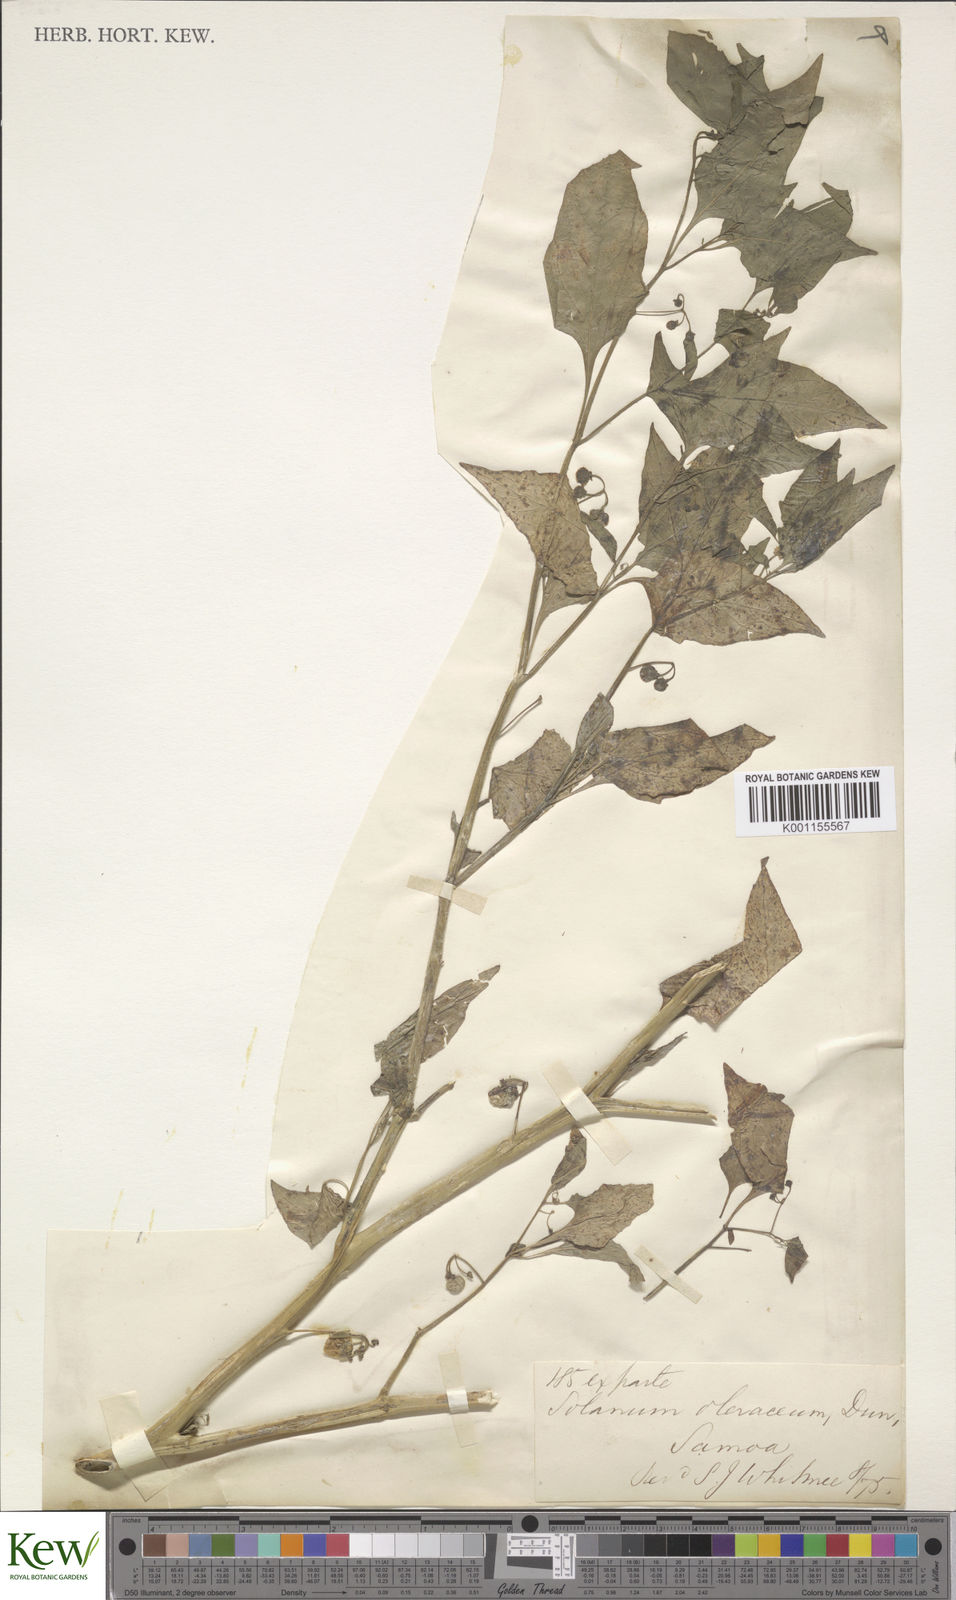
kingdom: Plantae
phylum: Tracheophyta
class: Magnoliopsida
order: Solanales
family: Solanaceae
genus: Solanum
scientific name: Solanum americanum
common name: American black nightshade
